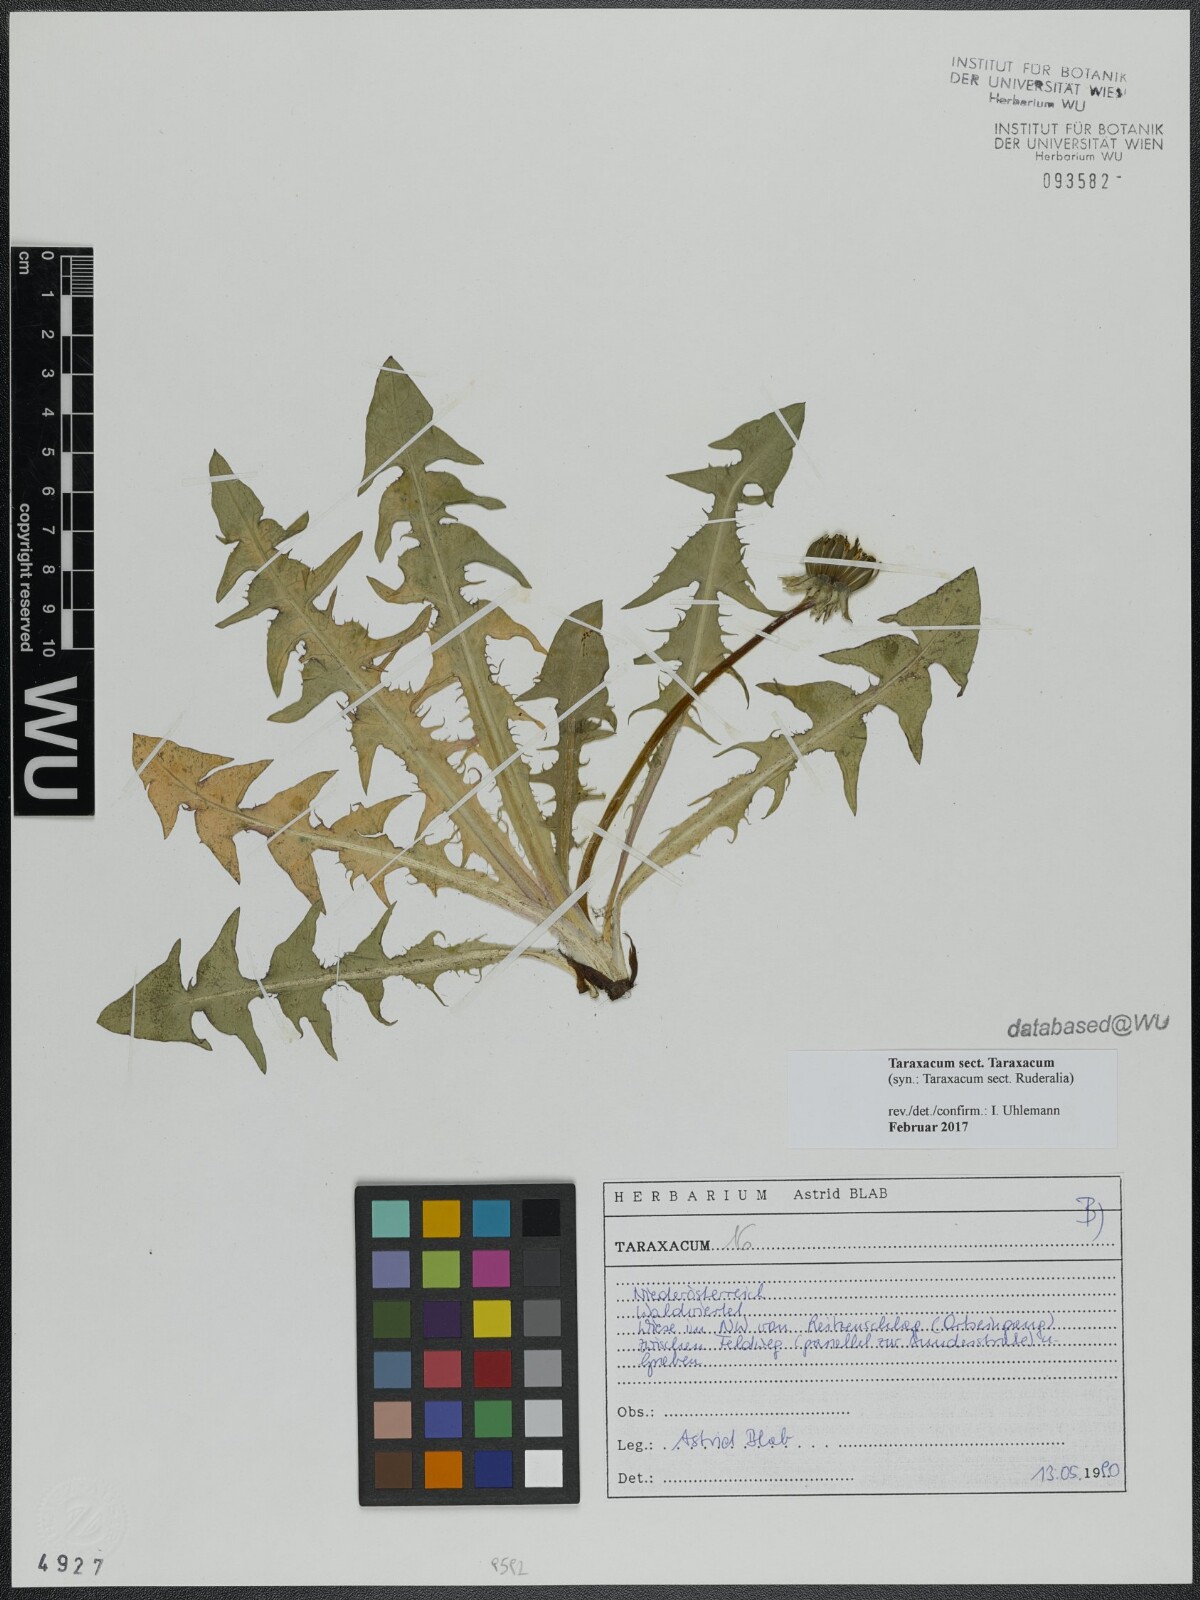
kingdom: Plantae
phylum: Tracheophyta
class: Magnoliopsida
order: Asterales
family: Asteraceae
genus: Taraxacum
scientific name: Taraxacum
